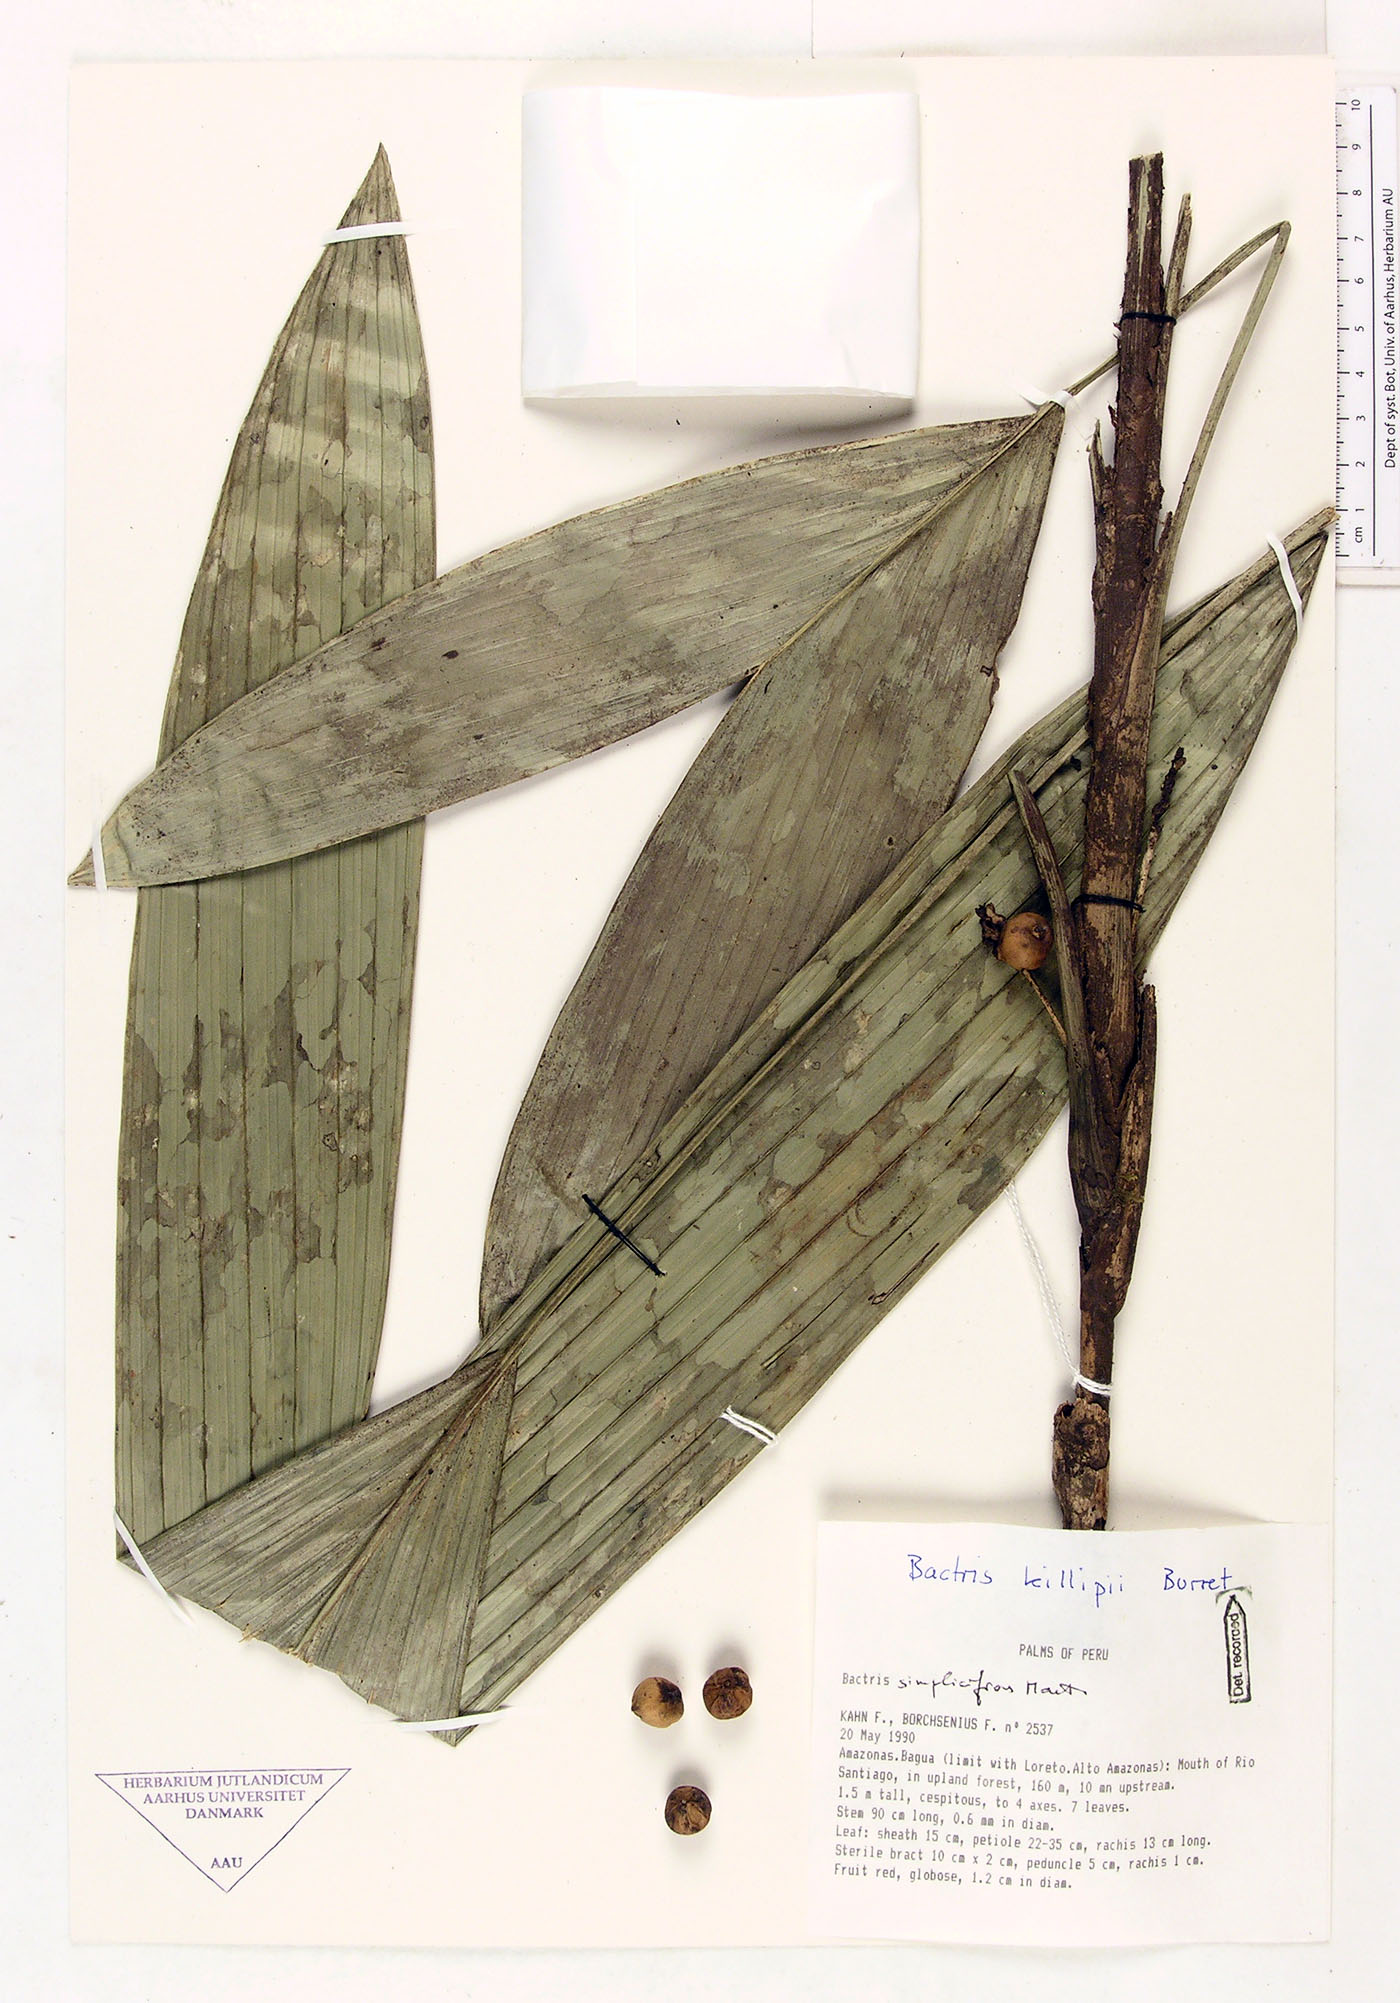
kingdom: Plantae
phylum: Tracheophyta
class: Liliopsida
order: Arecales
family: Arecaceae
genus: Bactris
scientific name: Bactris killipii
